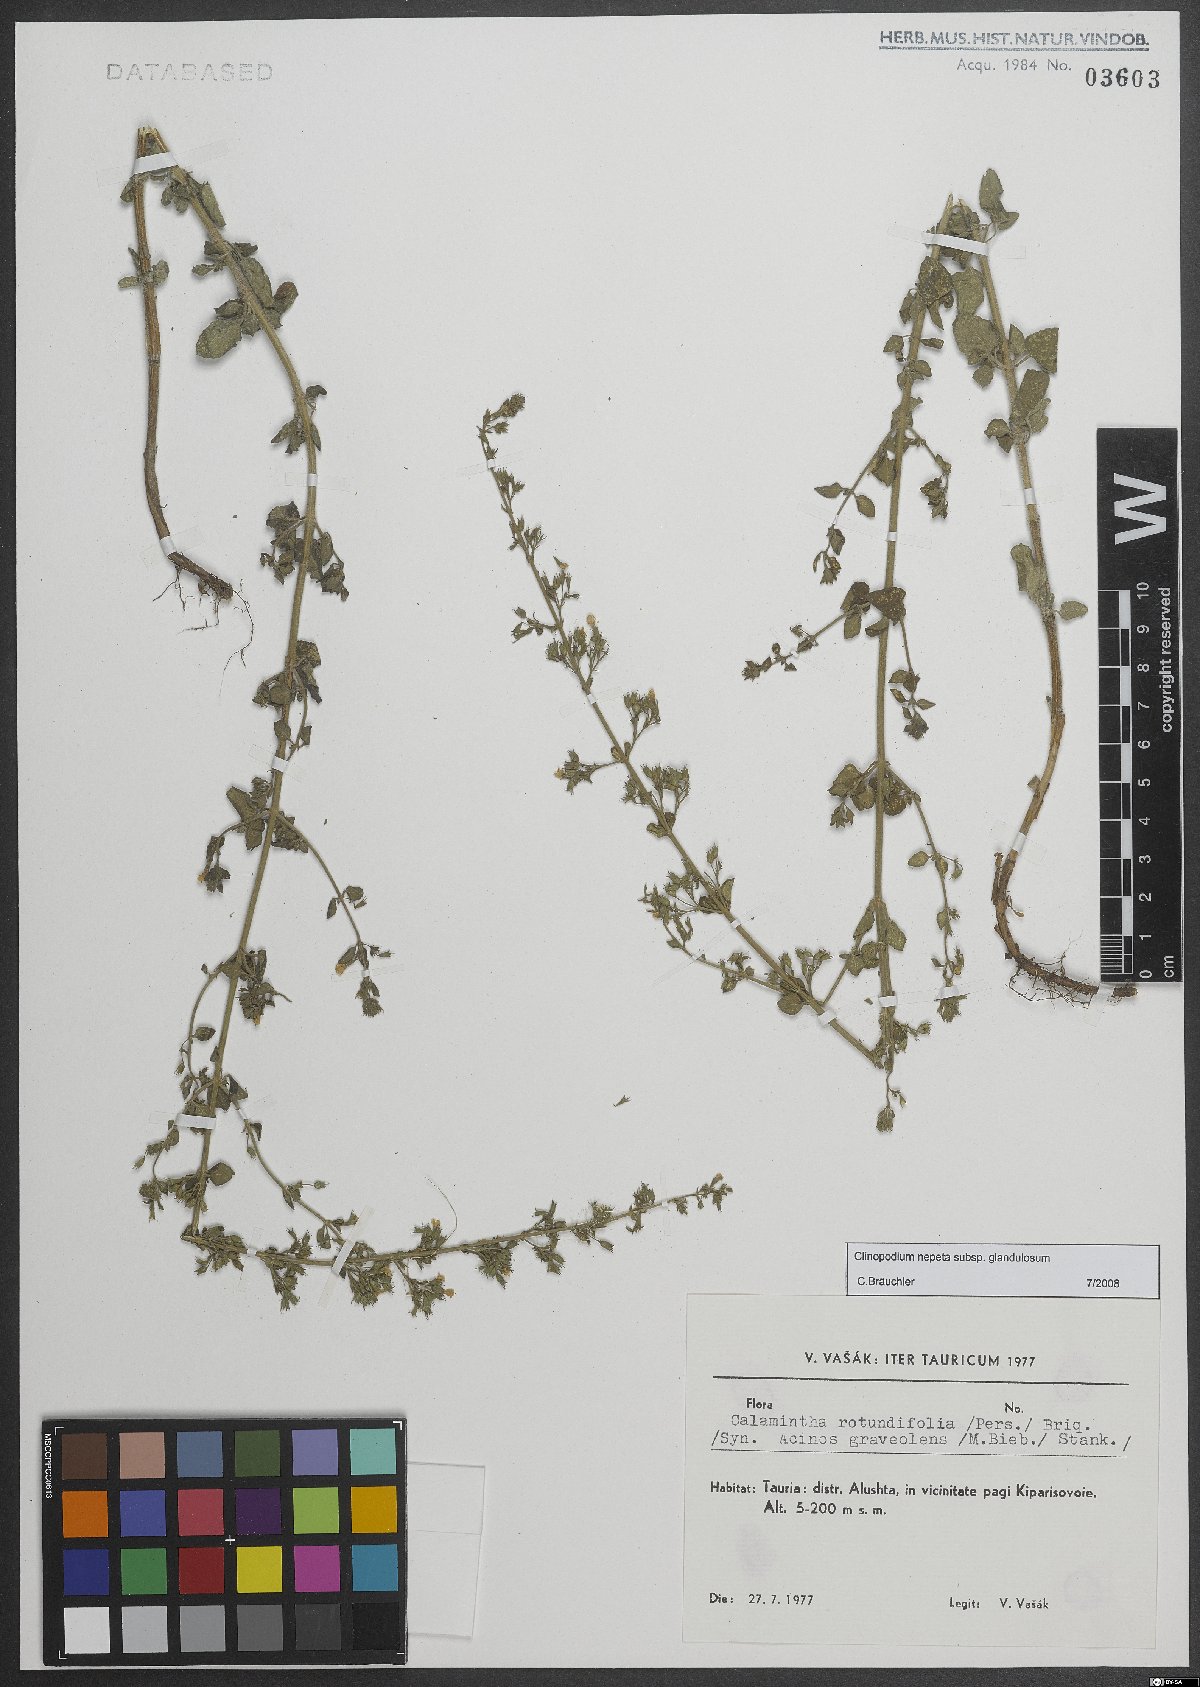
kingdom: Plantae
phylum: Tracheophyta
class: Magnoliopsida
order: Lamiales
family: Lamiaceae
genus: Clinopodium
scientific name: Clinopodium nepeta
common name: Lesser calamint
